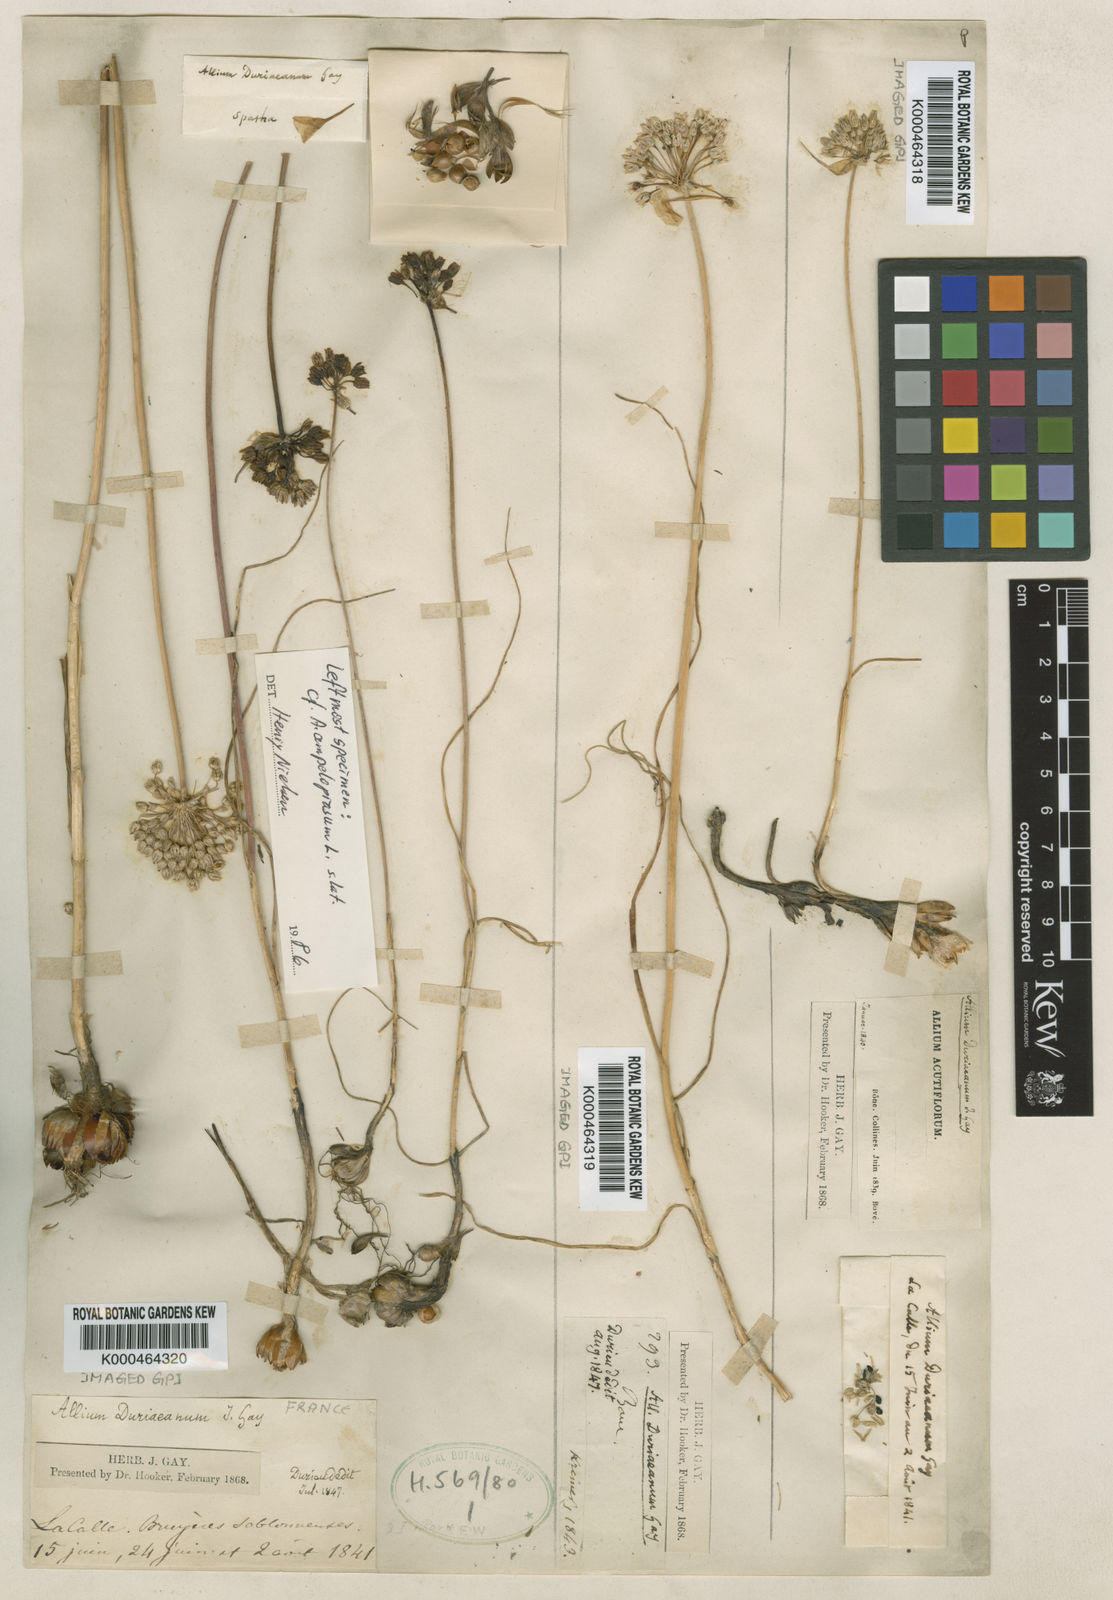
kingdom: Plantae
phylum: Tracheophyta
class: Liliopsida
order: Asparagales
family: Amaryllidaceae
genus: Allium
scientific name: Allium baeticum
